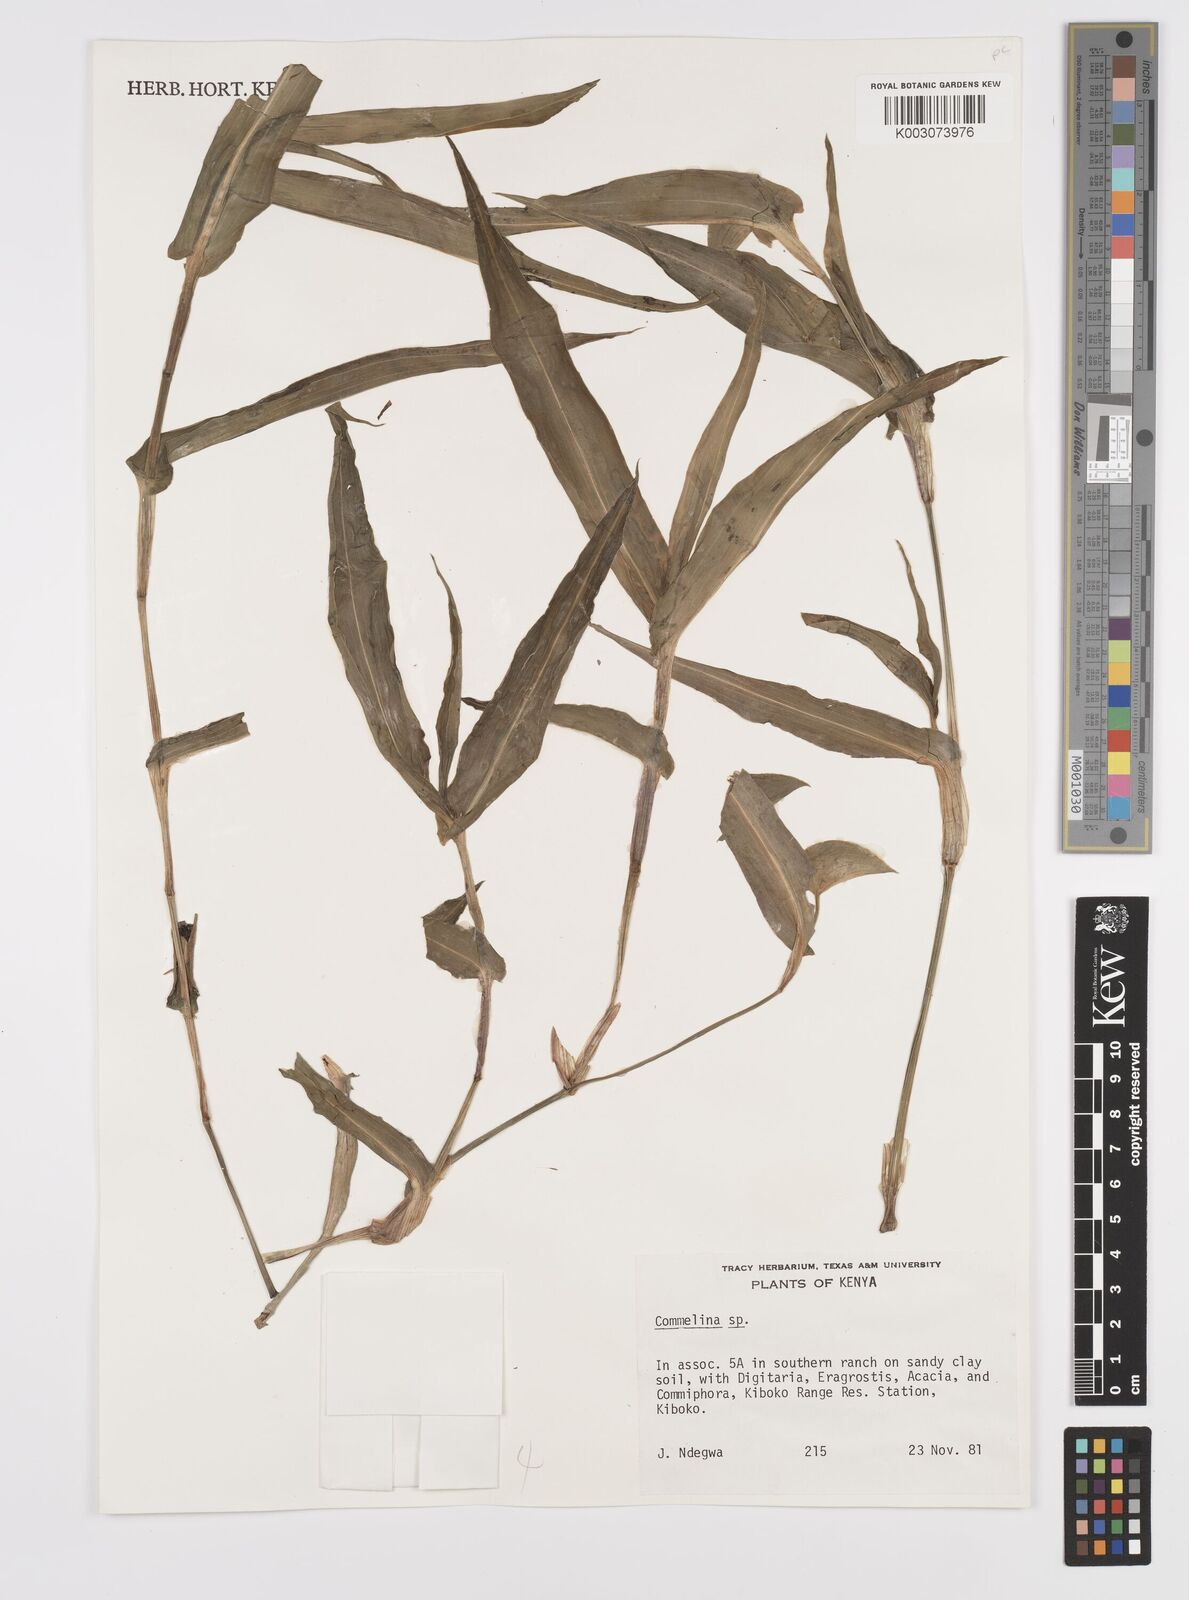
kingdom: Plantae
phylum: Tracheophyta
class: Liliopsida
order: Commelinales
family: Commelinaceae
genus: Commelina
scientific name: Commelina imberbis
